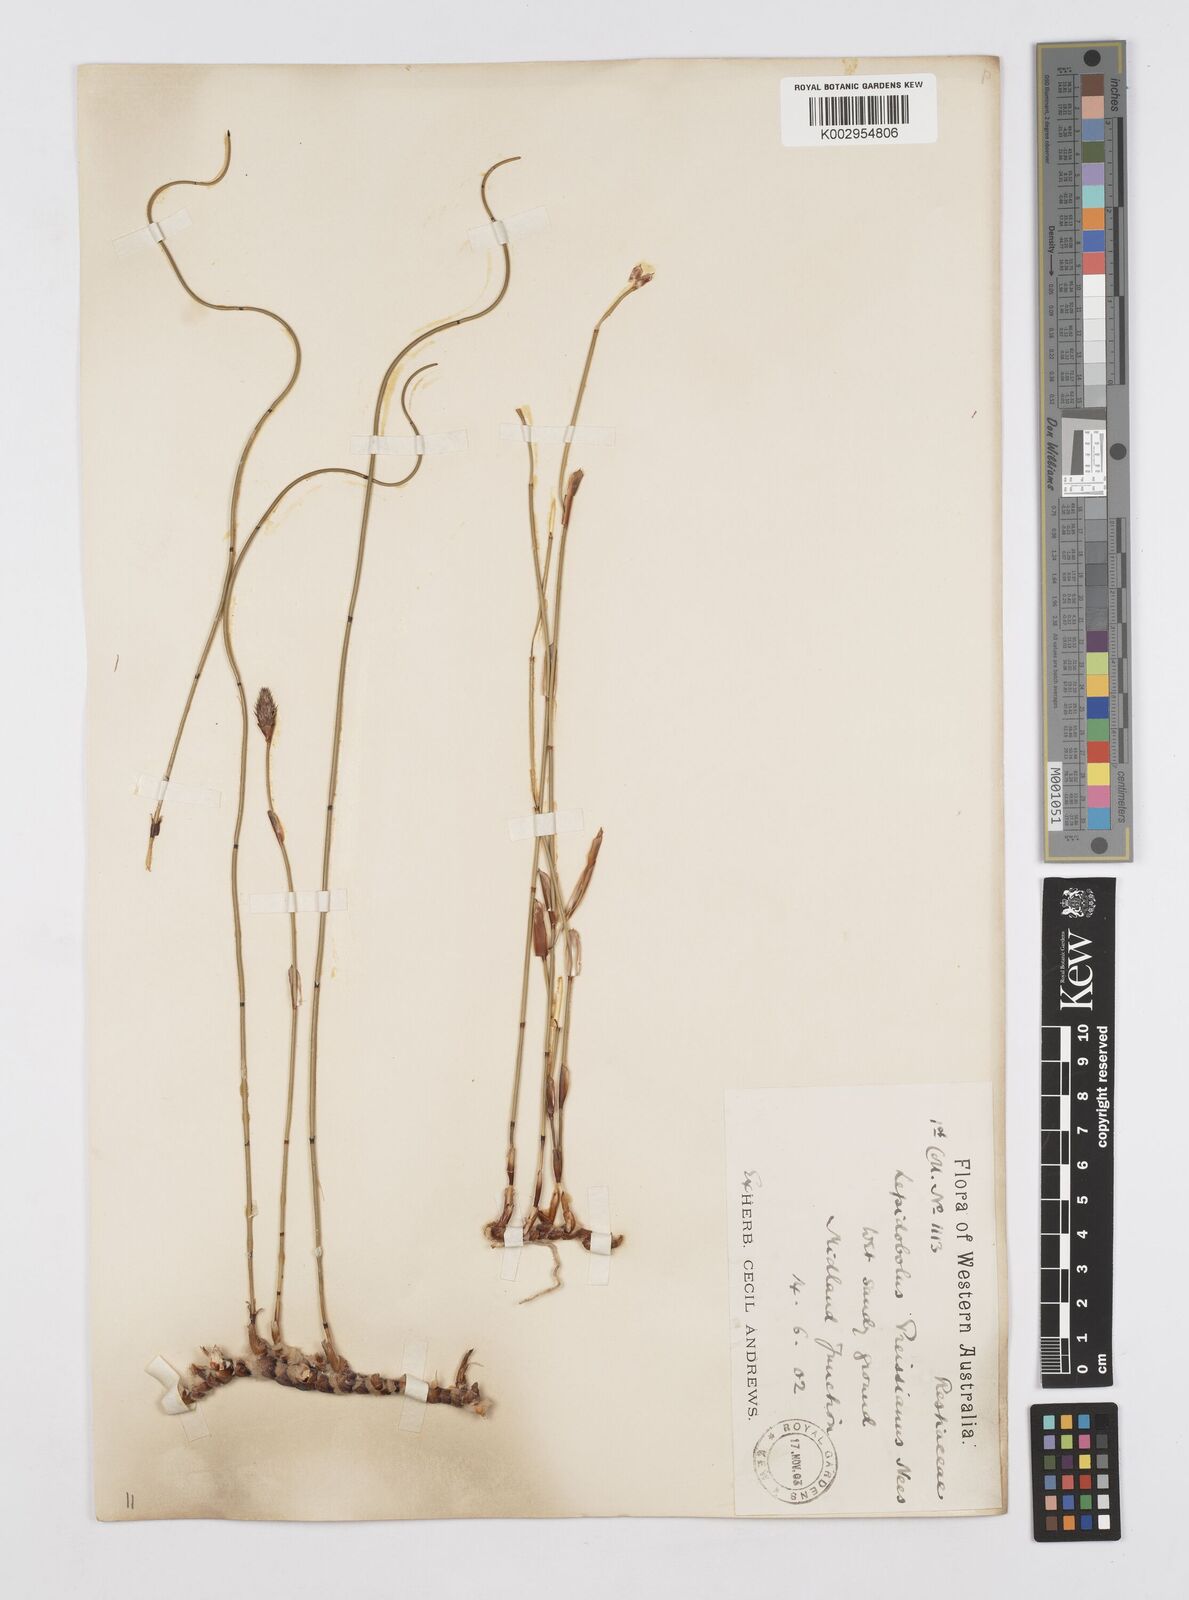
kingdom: Plantae
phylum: Tracheophyta
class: Liliopsida
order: Poales
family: Restionaceae
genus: Lepidobolus
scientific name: Lepidobolus preissianus
